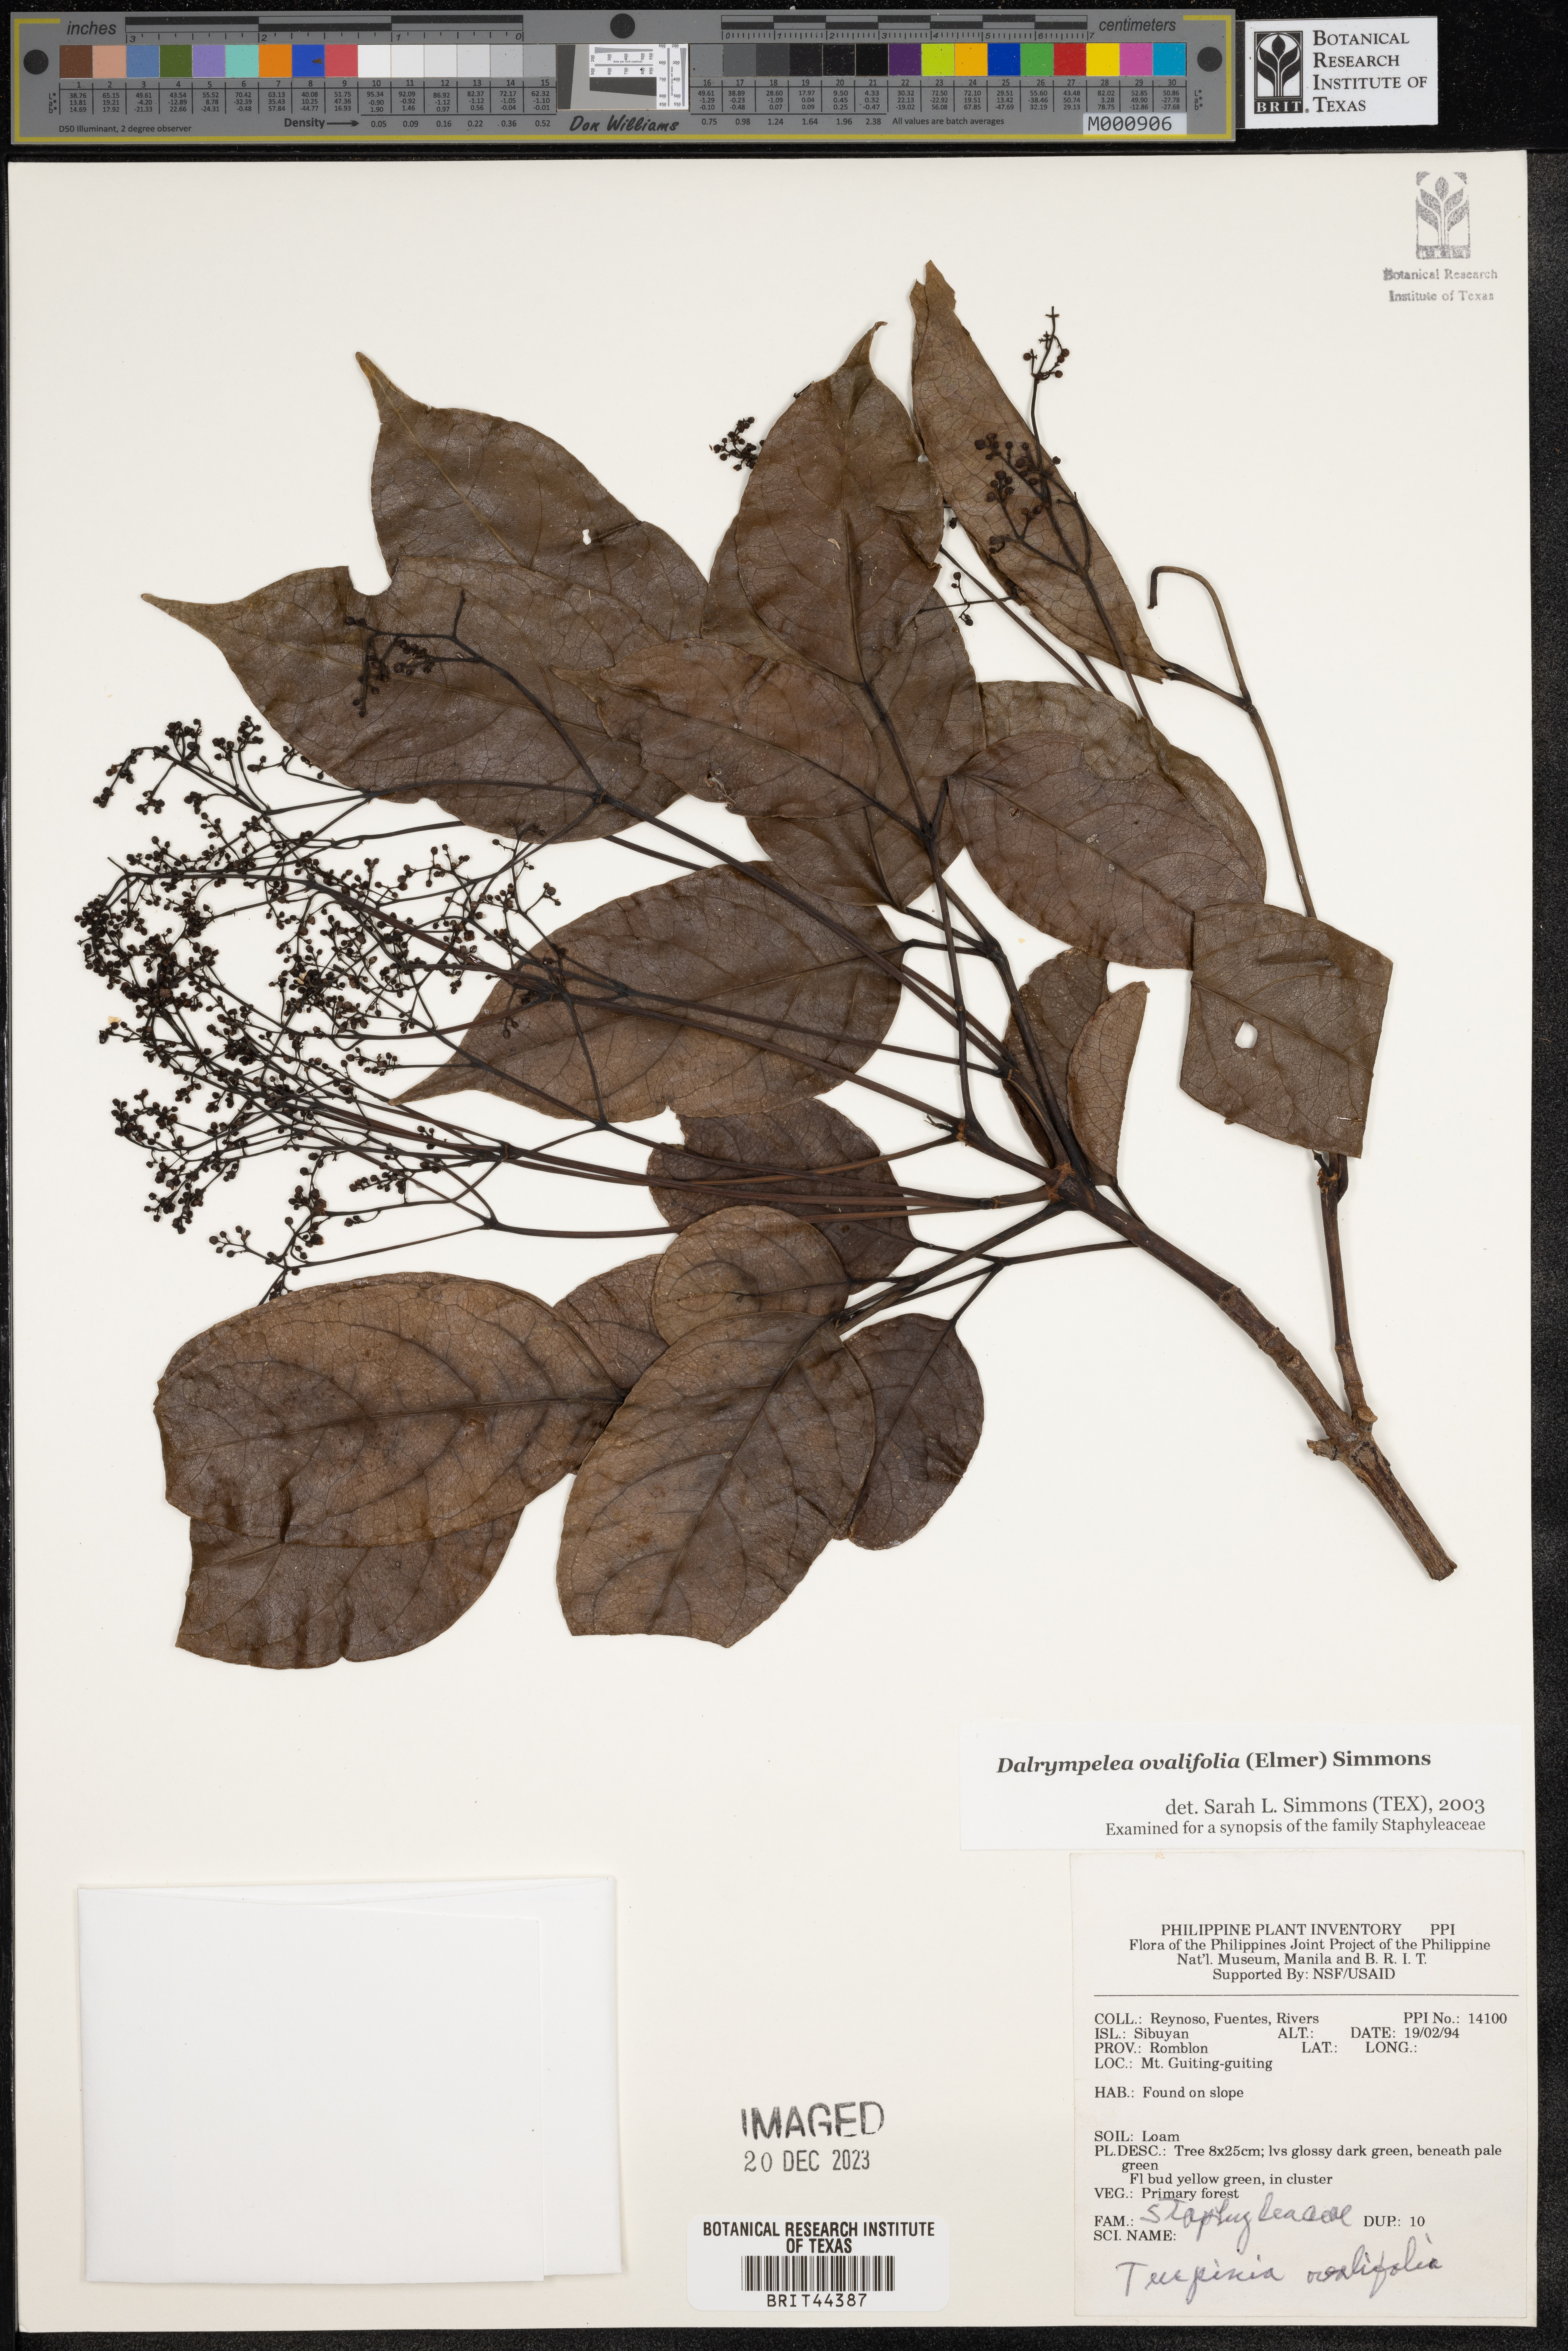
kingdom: Plantae
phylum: Tracheophyta
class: Magnoliopsida
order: Crossosomatales
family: Staphyleaceae
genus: Dalrympelea
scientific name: Dalrympelea
